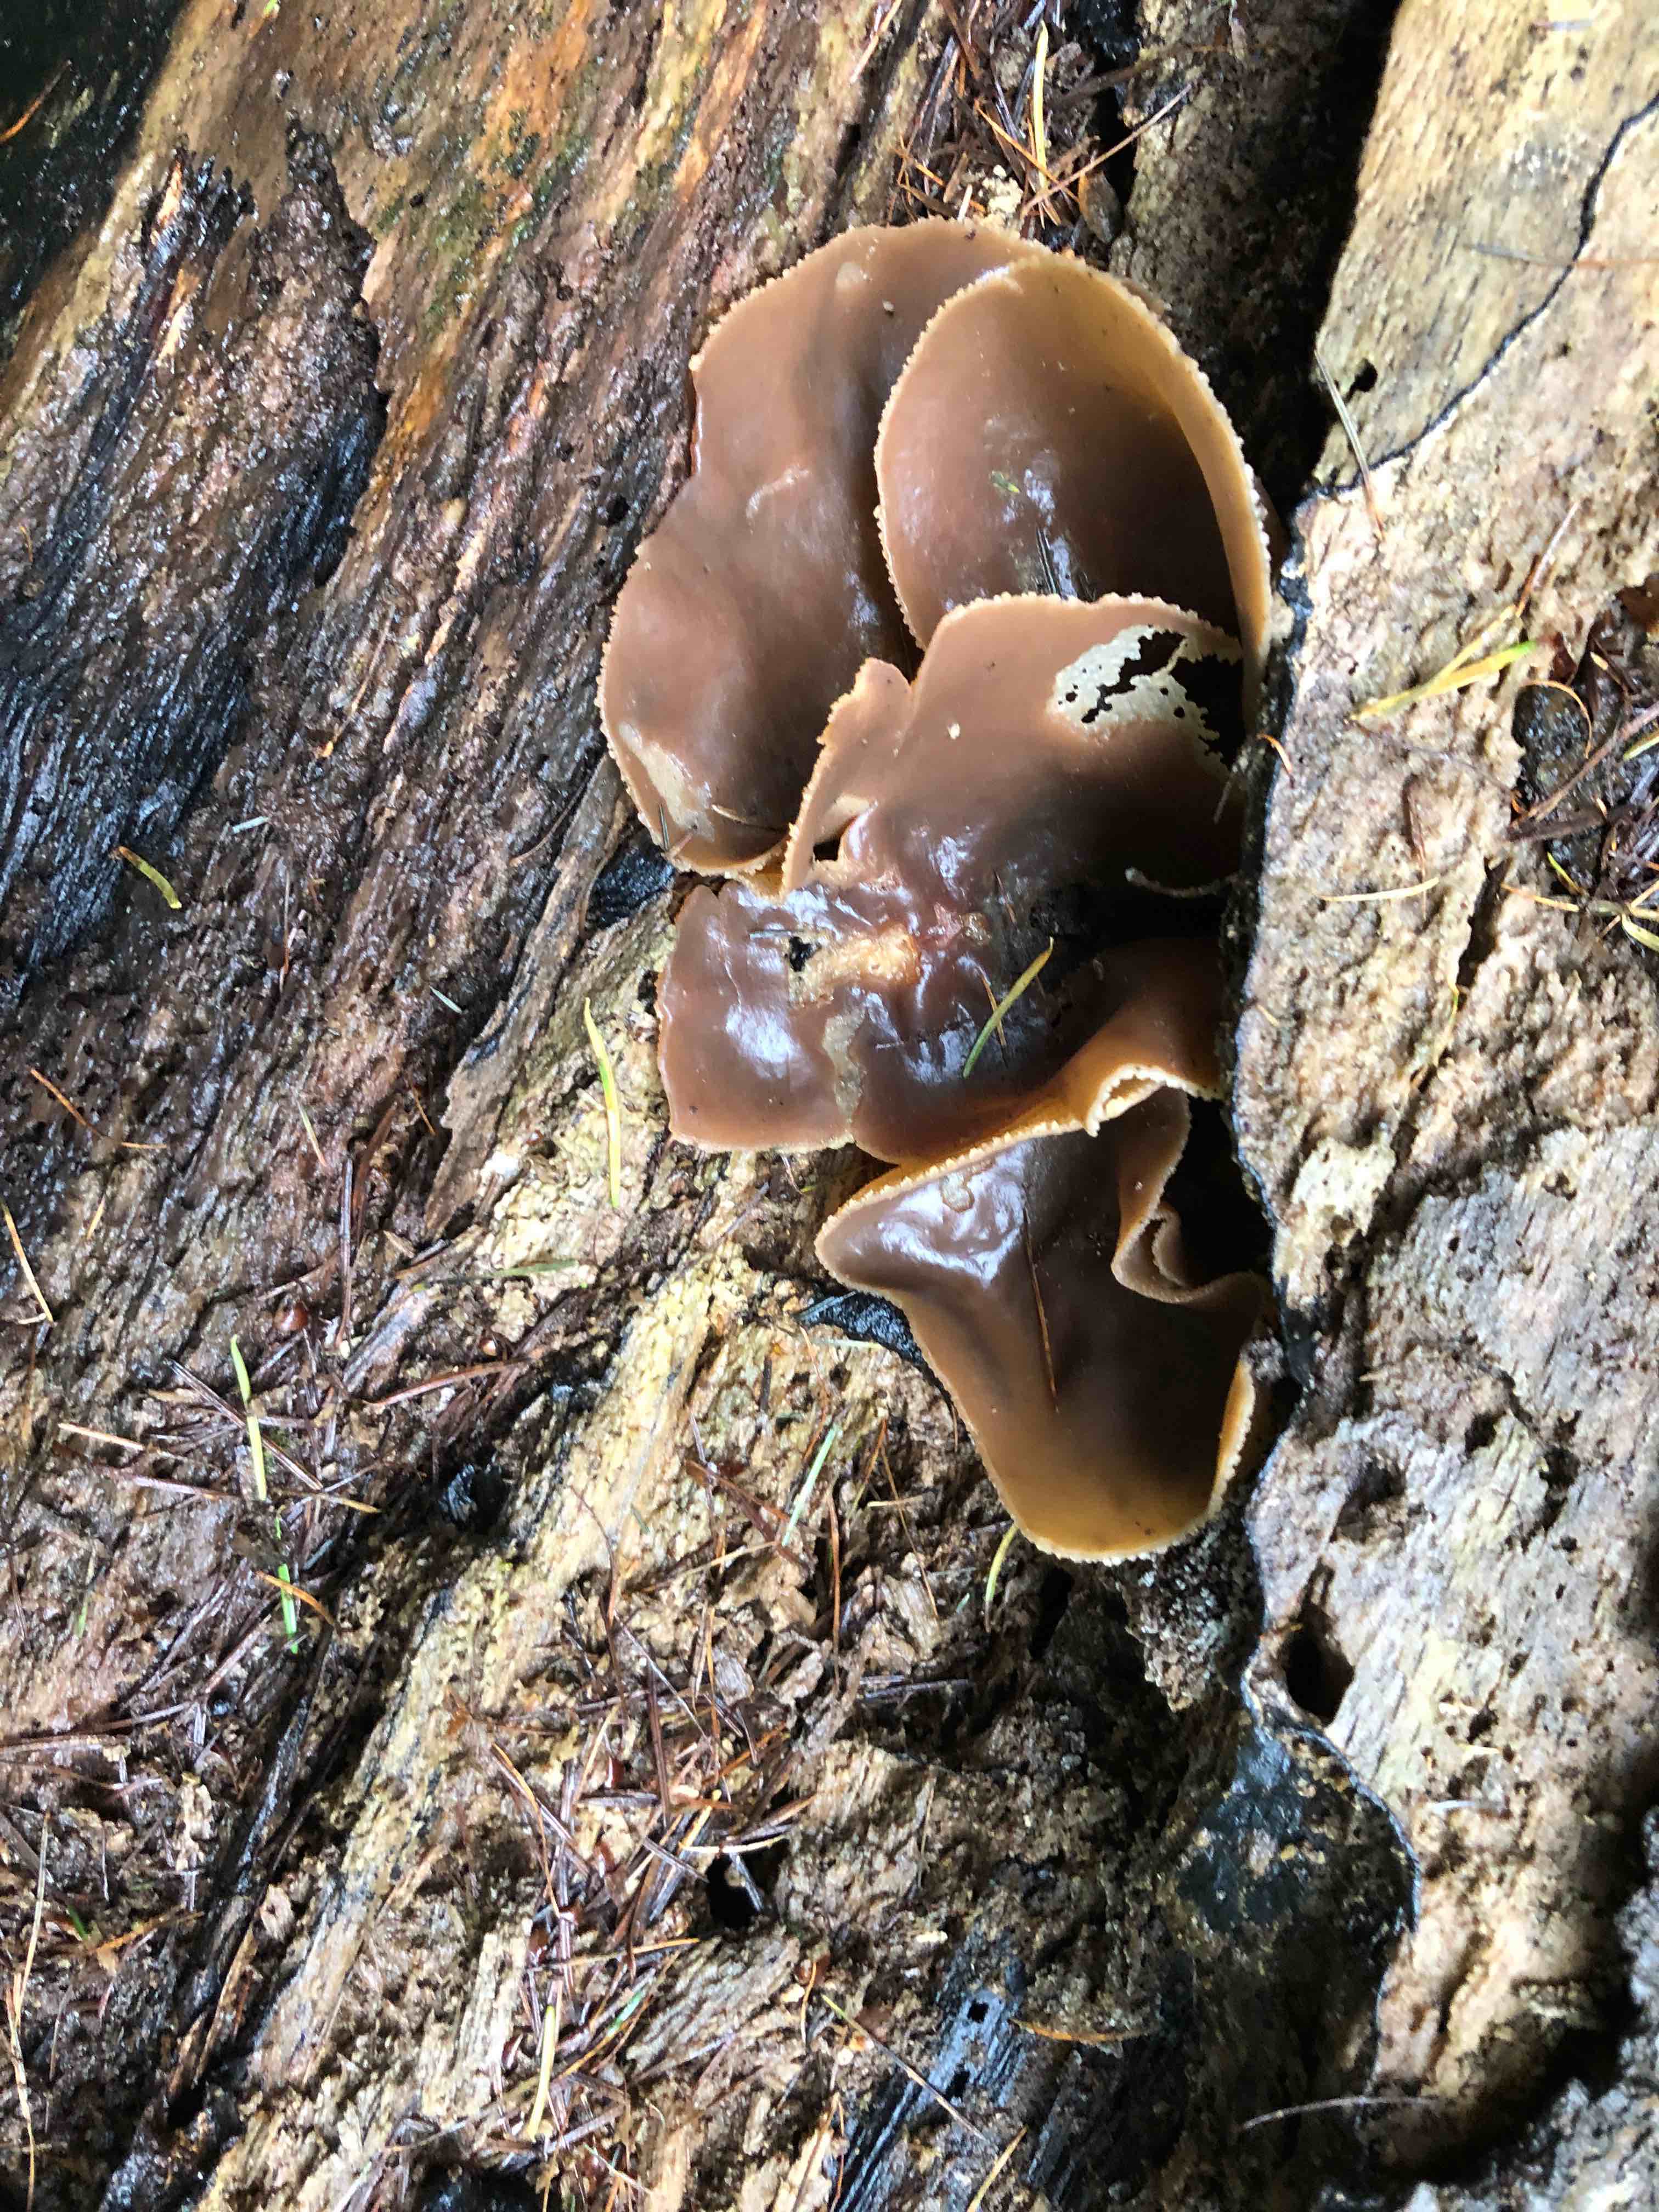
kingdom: Fungi
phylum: Ascomycota
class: Pezizomycetes
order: Pezizales
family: Pezizaceae
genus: Peziza
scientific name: Peziza varia
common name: Ved-bægersvamp
